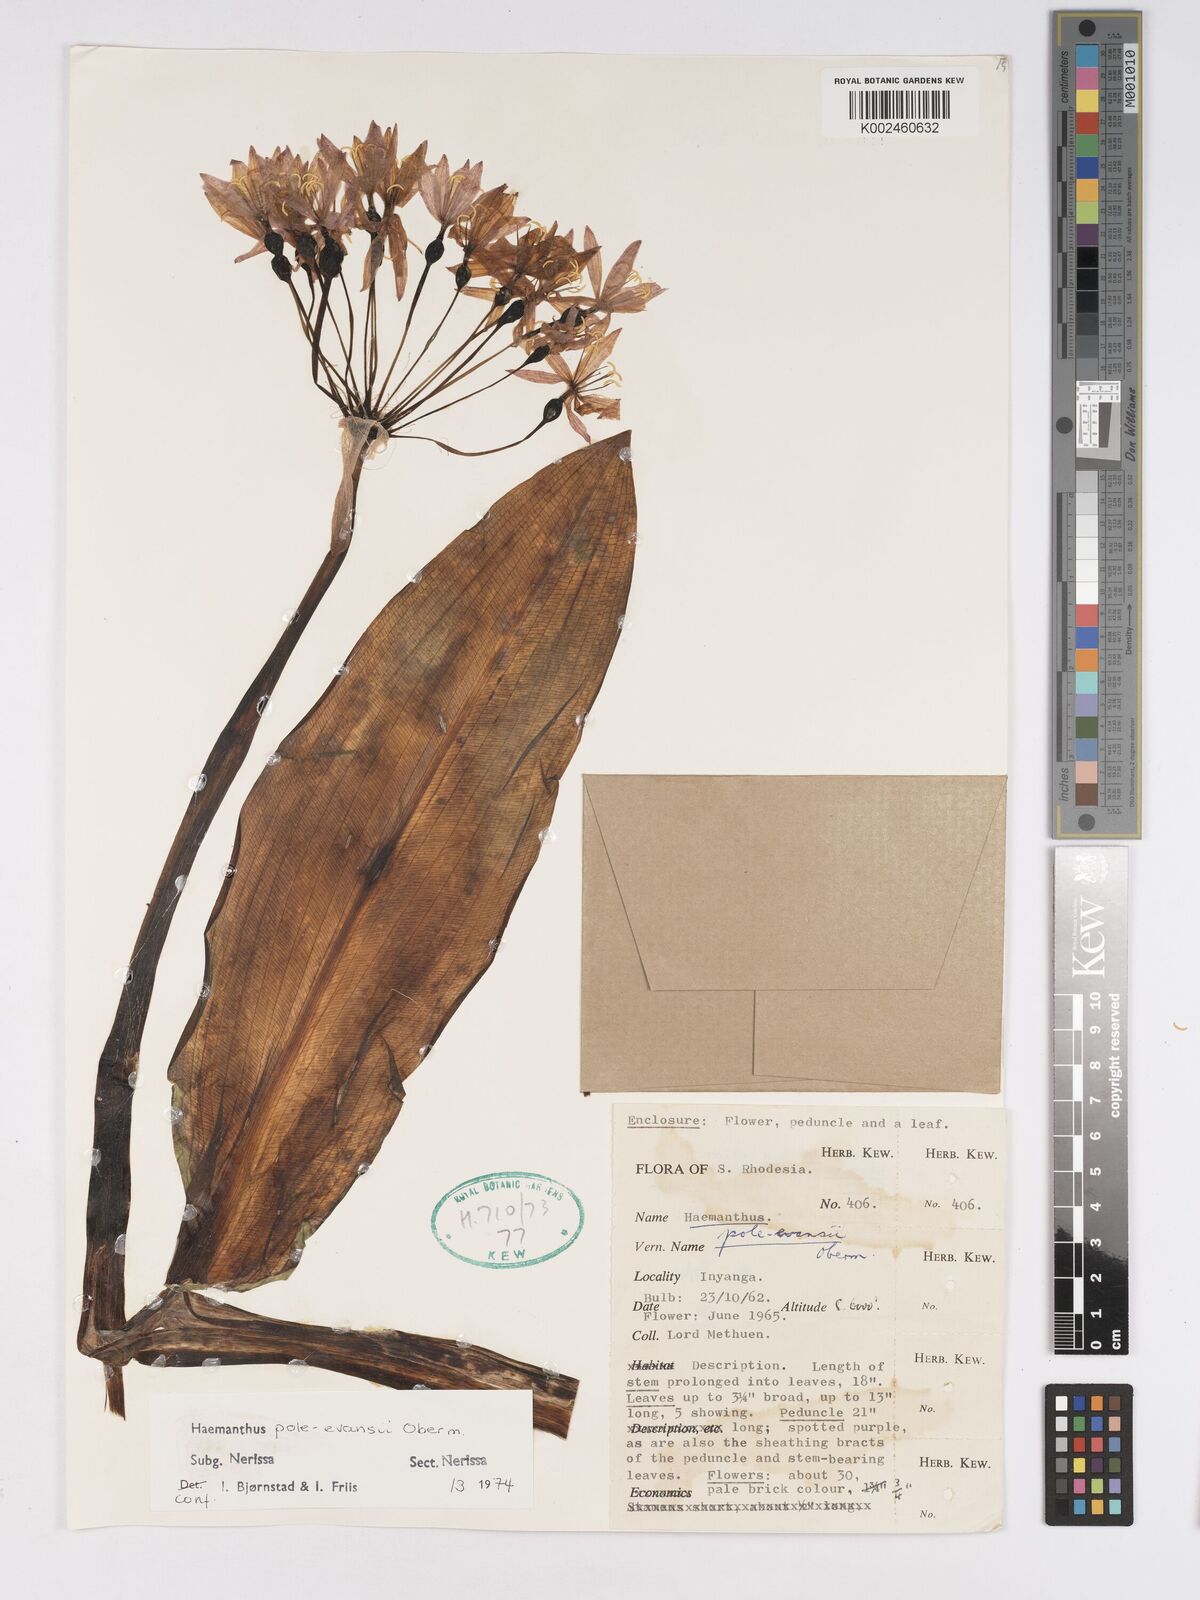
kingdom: Plantae
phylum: Tracheophyta
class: Liliopsida
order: Asparagales
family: Amaryllidaceae
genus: Scadoxus
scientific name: Scadoxus pole-evansii
